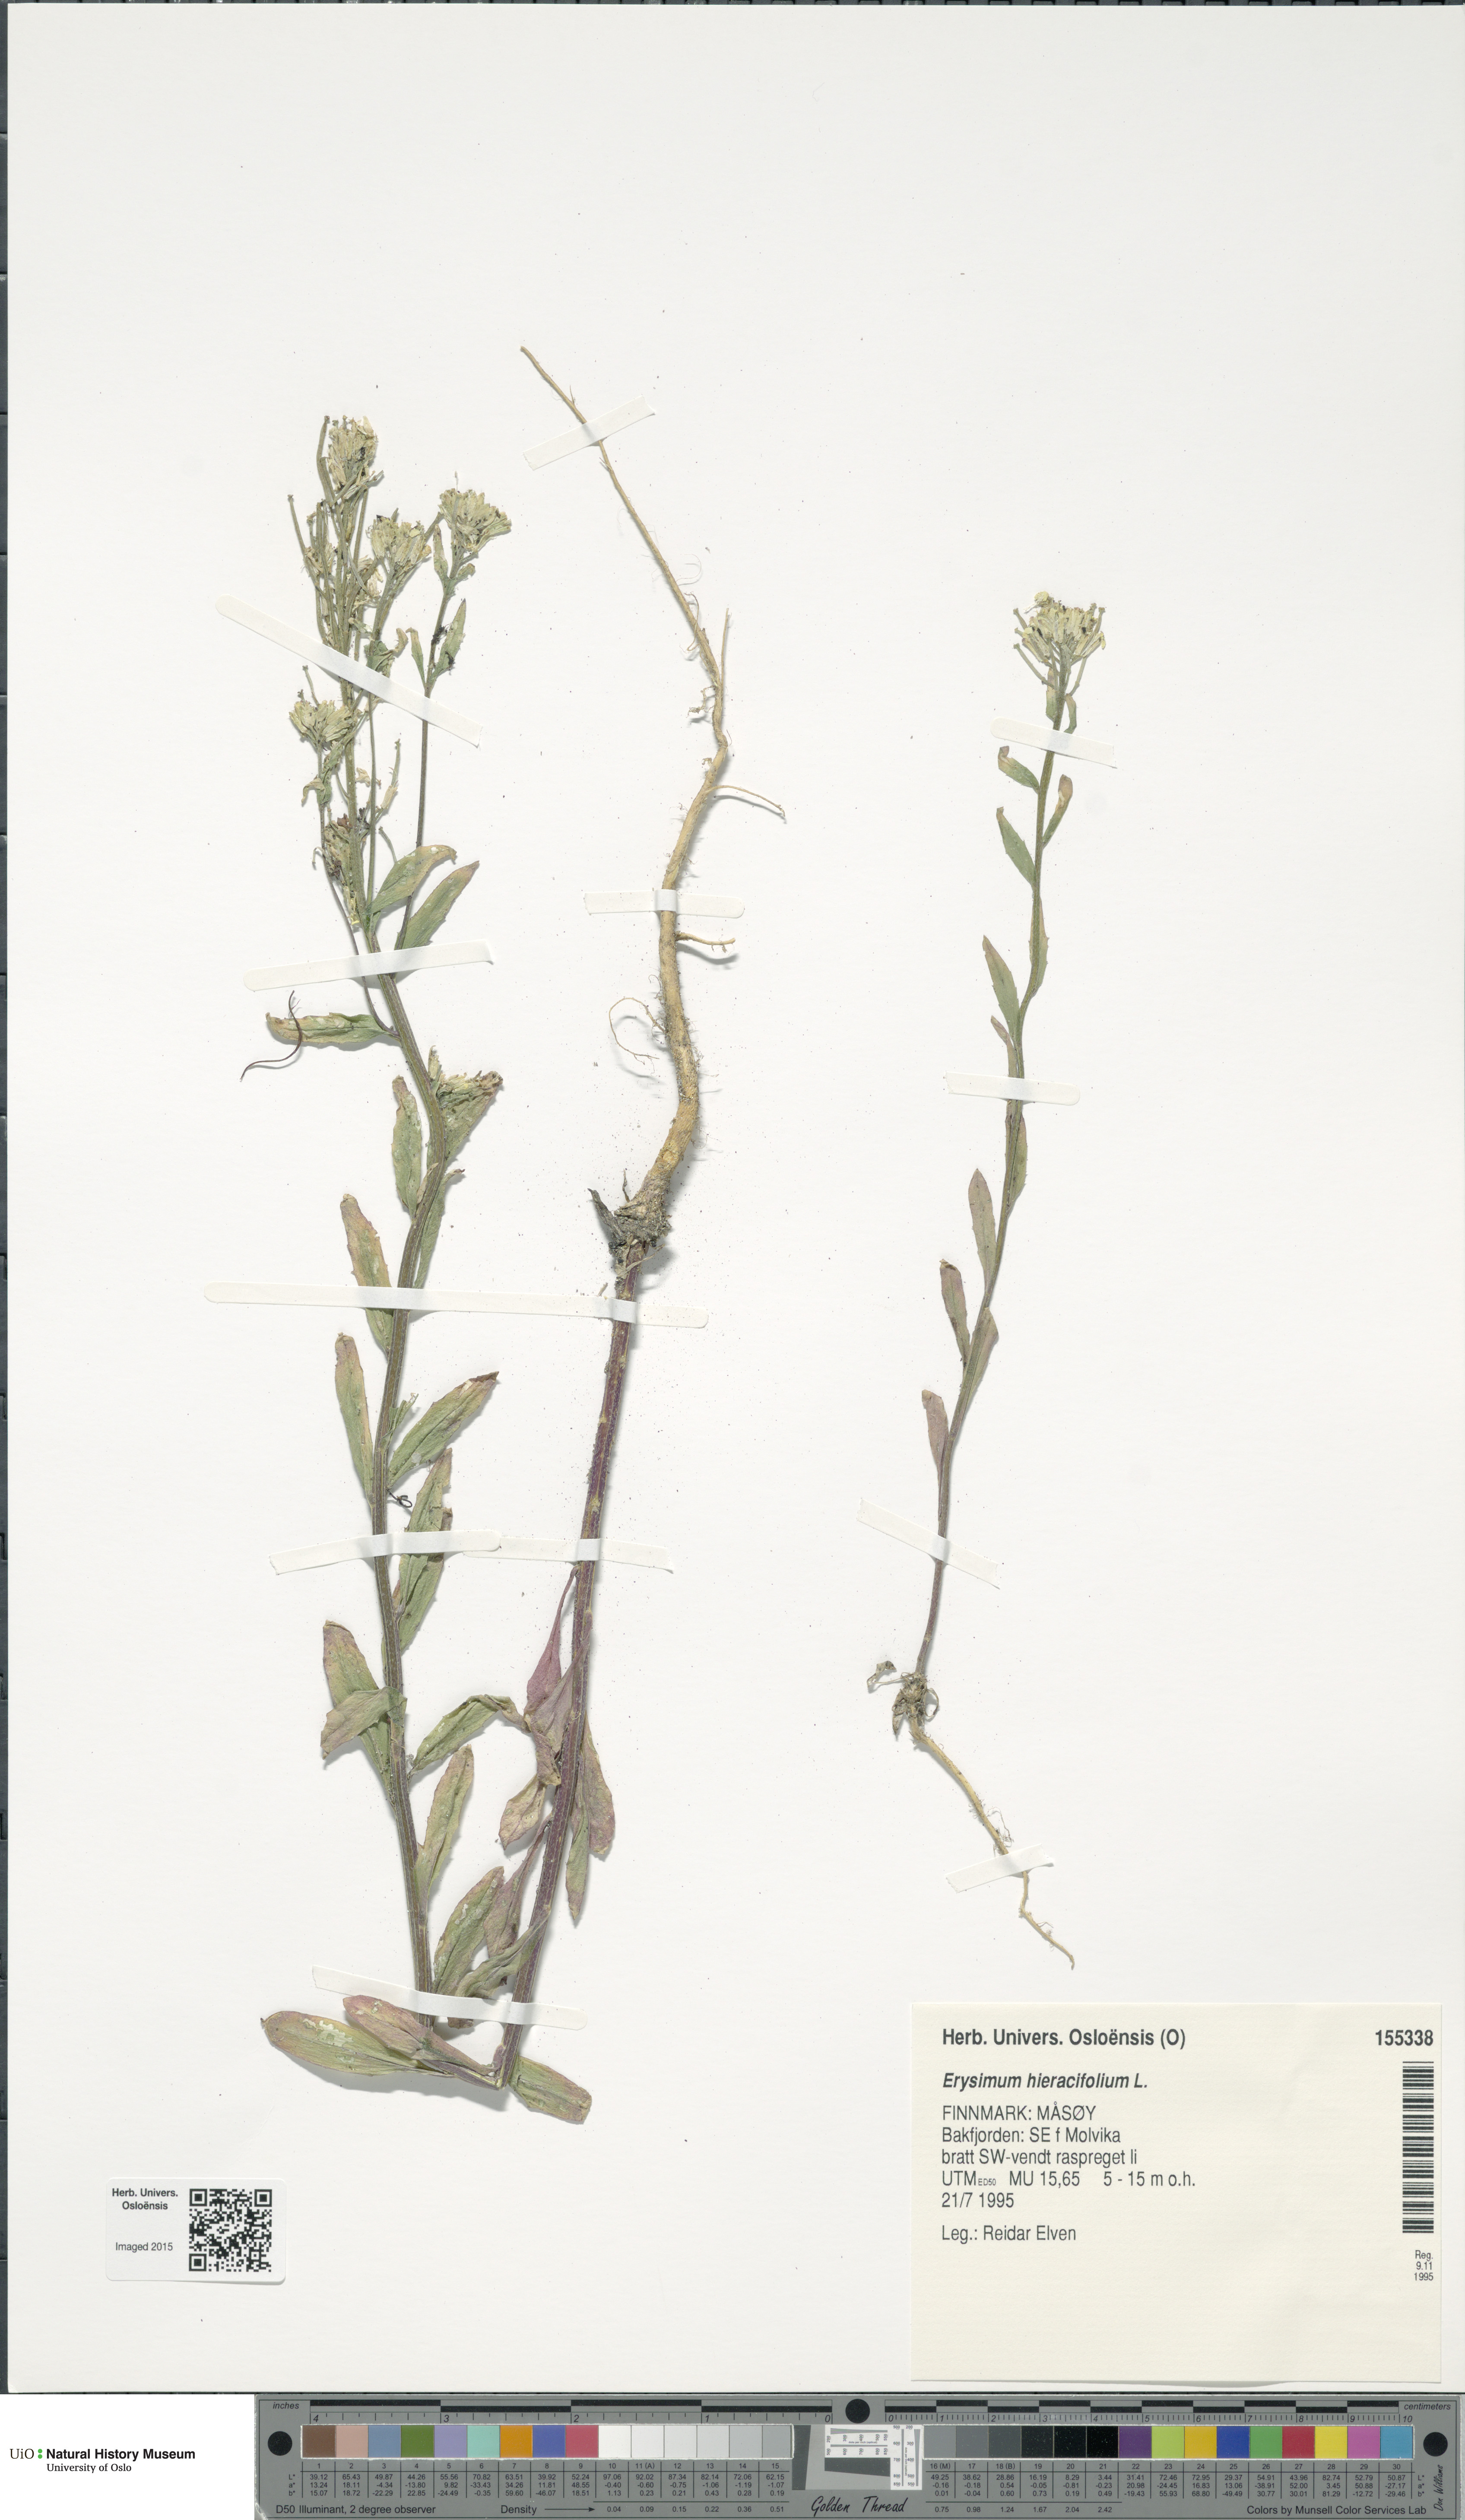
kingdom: Plantae
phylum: Tracheophyta
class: Magnoliopsida
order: Brassicales
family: Brassicaceae
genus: Erysimum
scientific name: Erysimum hieraciifolium
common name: European wallflower
